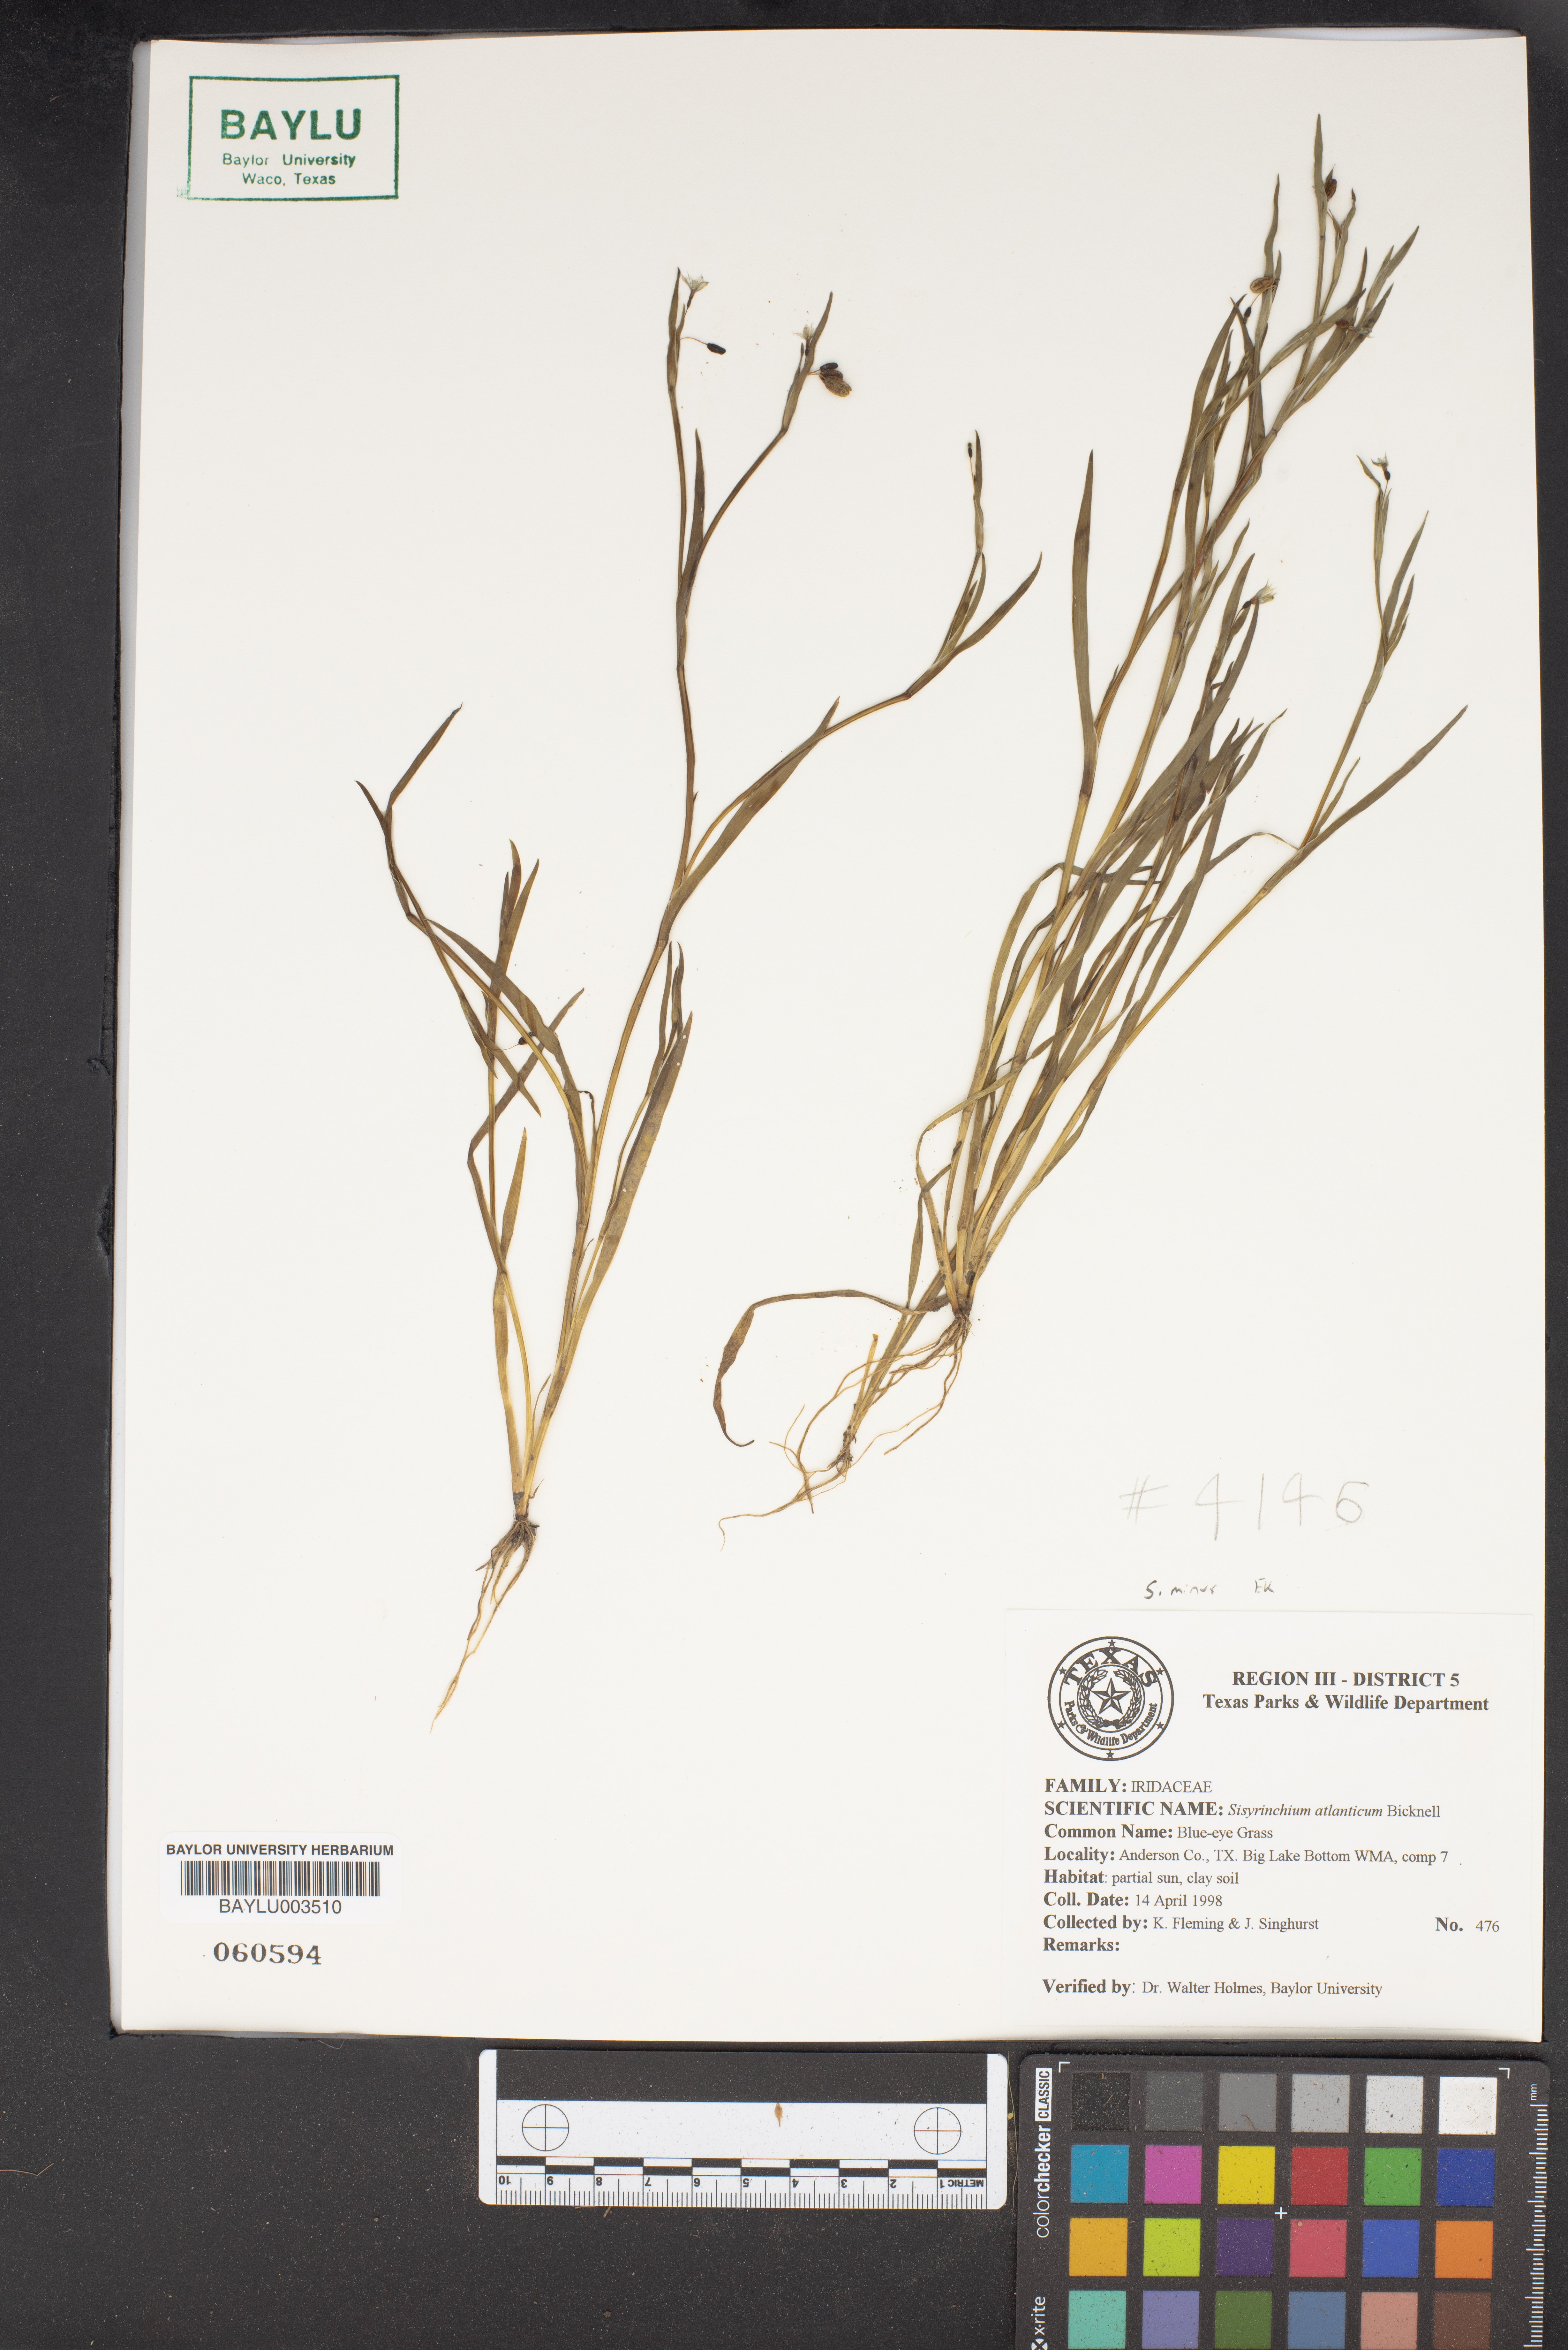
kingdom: Plantae
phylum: Tracheophyta
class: Liliopsida
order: Asparagales
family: Iridaceae
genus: Sisyrinchium
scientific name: Sisyrinchium atlanticum
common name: Eastern blue-eyed-grass
